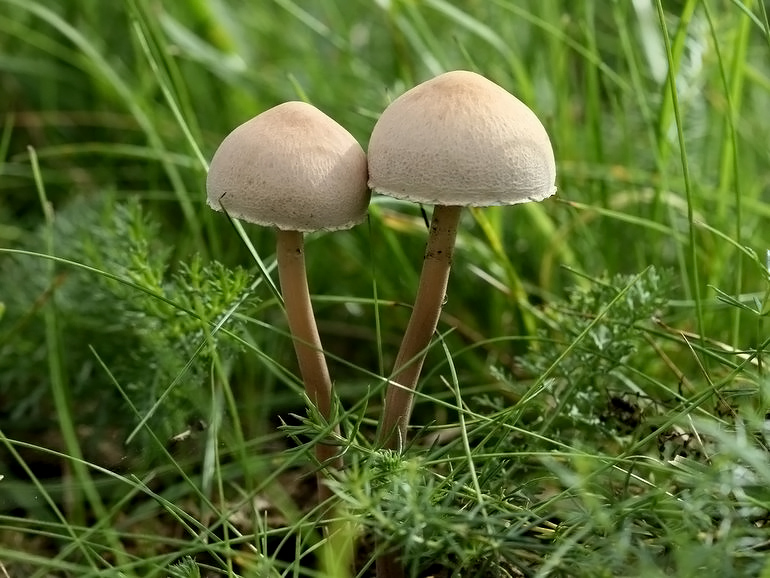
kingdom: Fungi
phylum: Basidiomycota
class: Agaricomycetes
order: Agaricales
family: Bolbitiaceae
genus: Panaeolus
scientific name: Panaeolus papilionaceus
